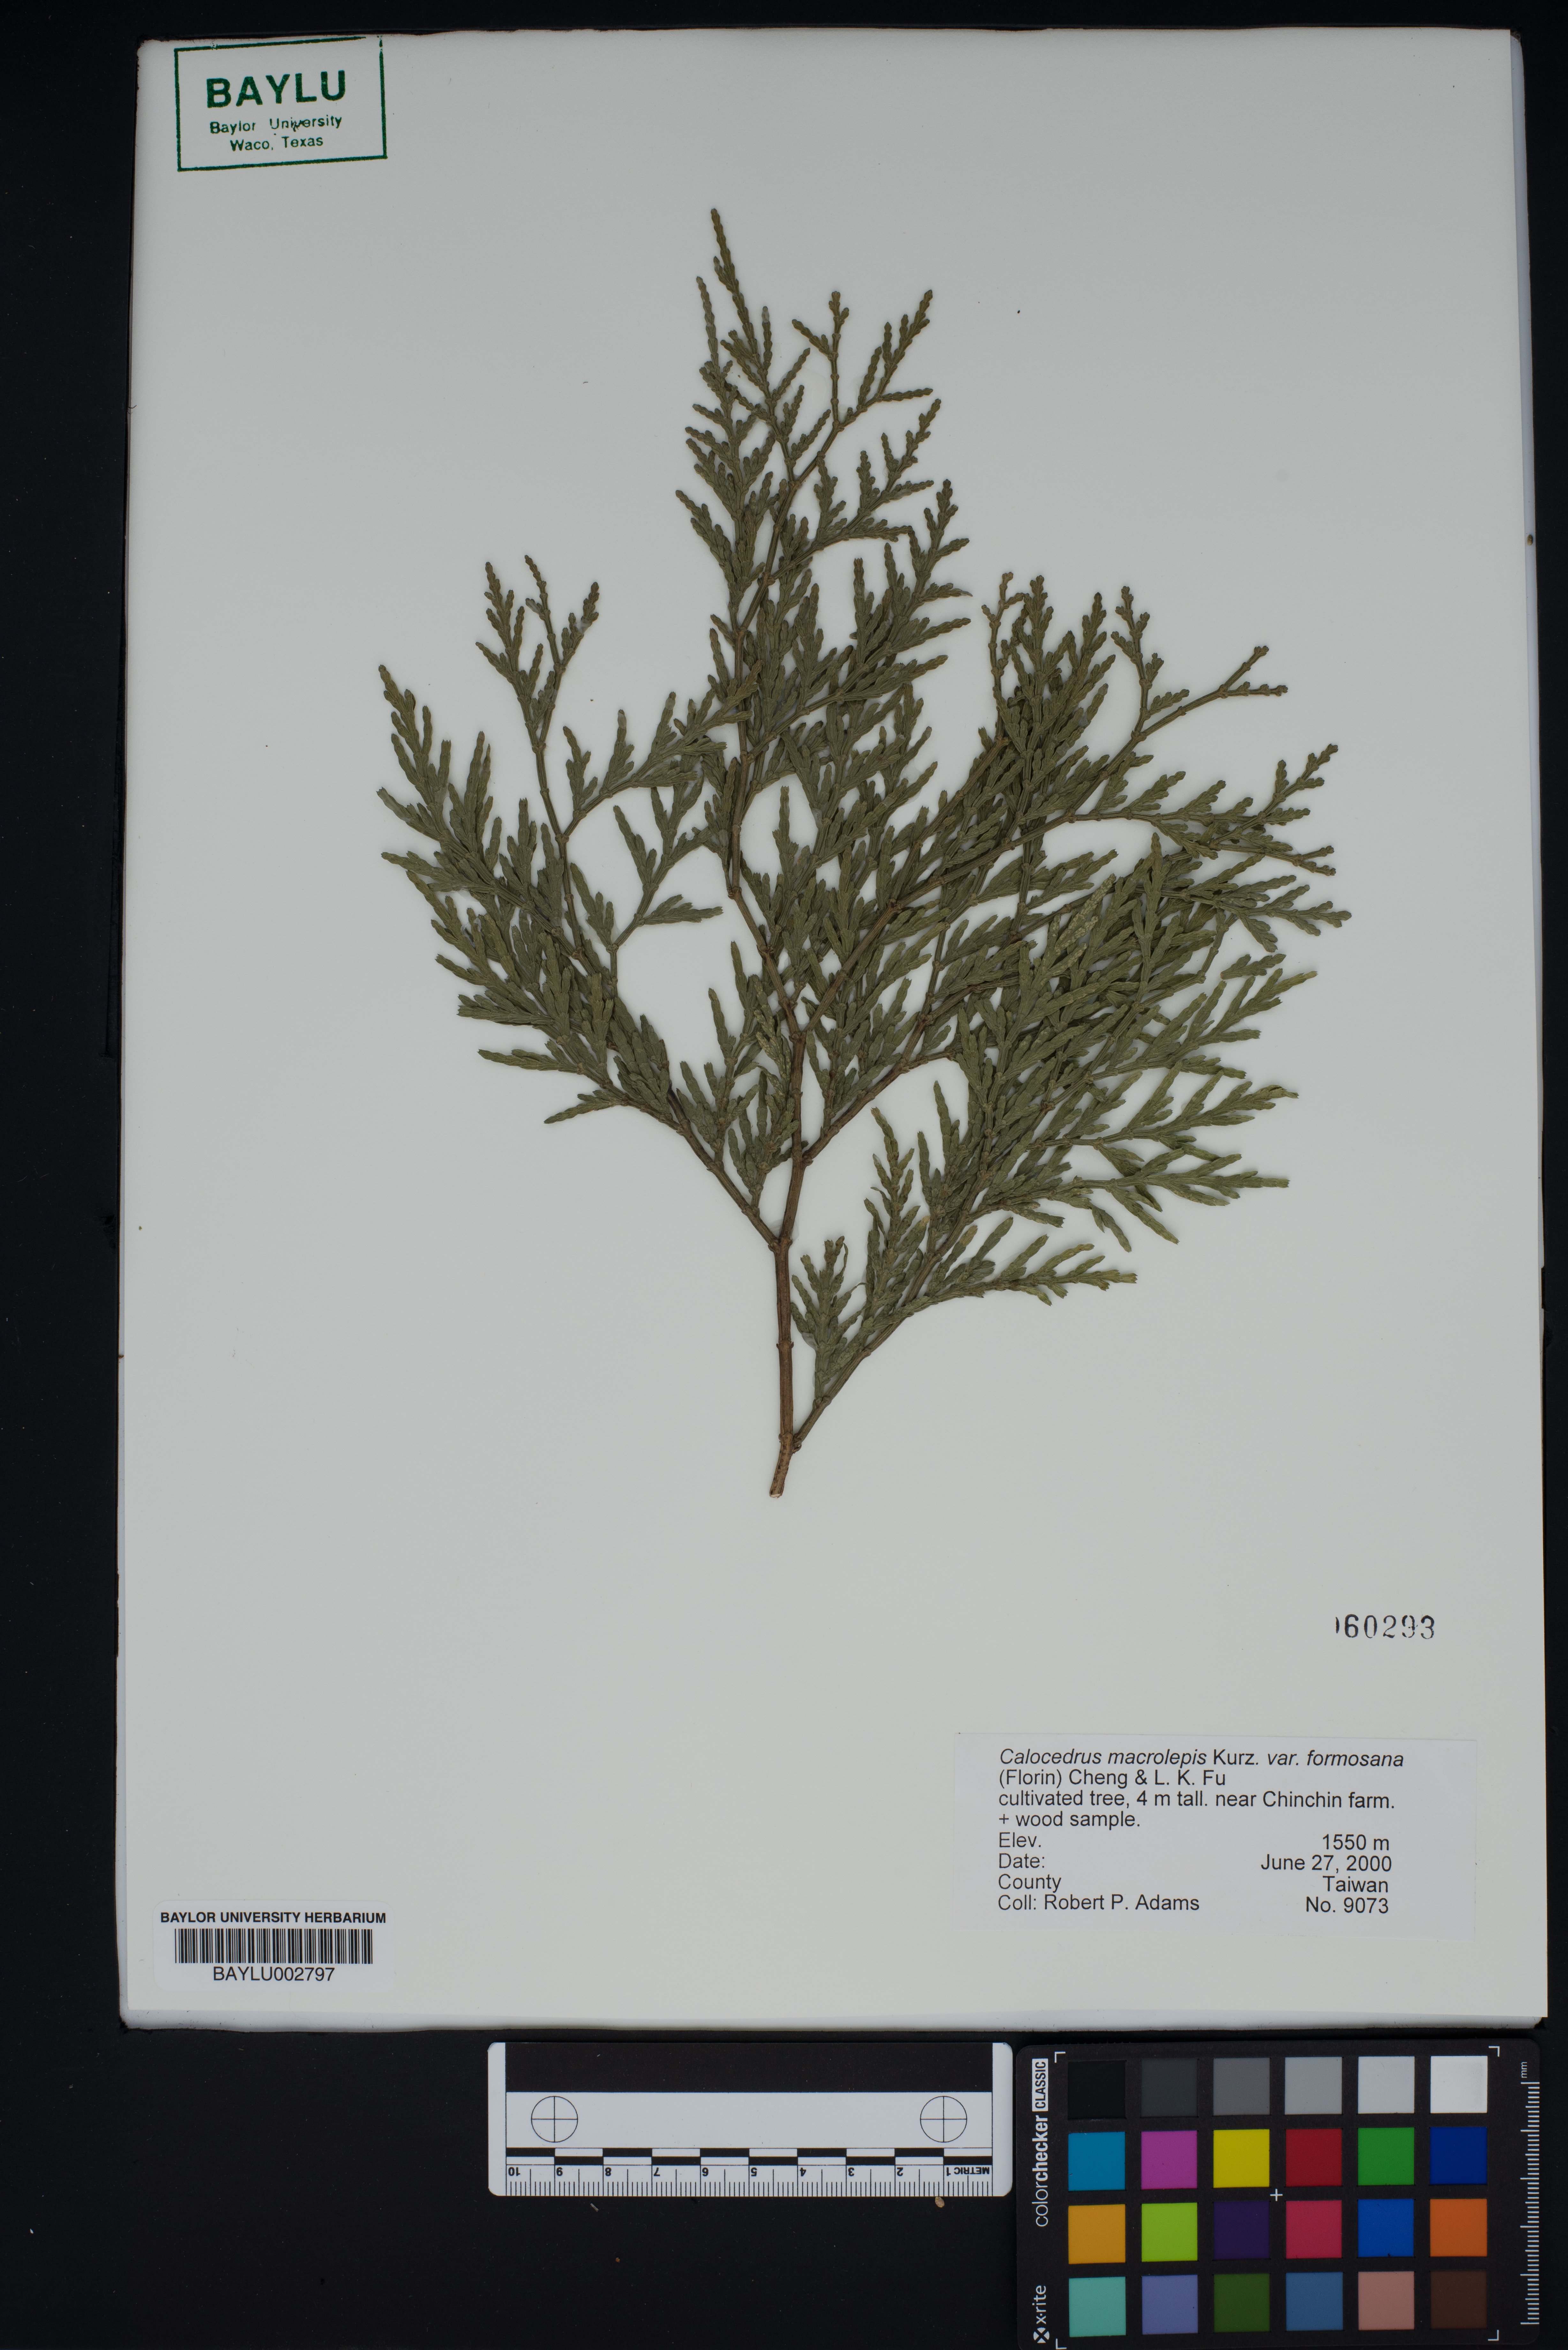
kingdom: Plantae
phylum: Tracheophyta
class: Pinopsida
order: Pinales
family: Cupressaceae
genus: Calocedrus
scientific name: Calocedrus formosana
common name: Taiwan incense-cedar
